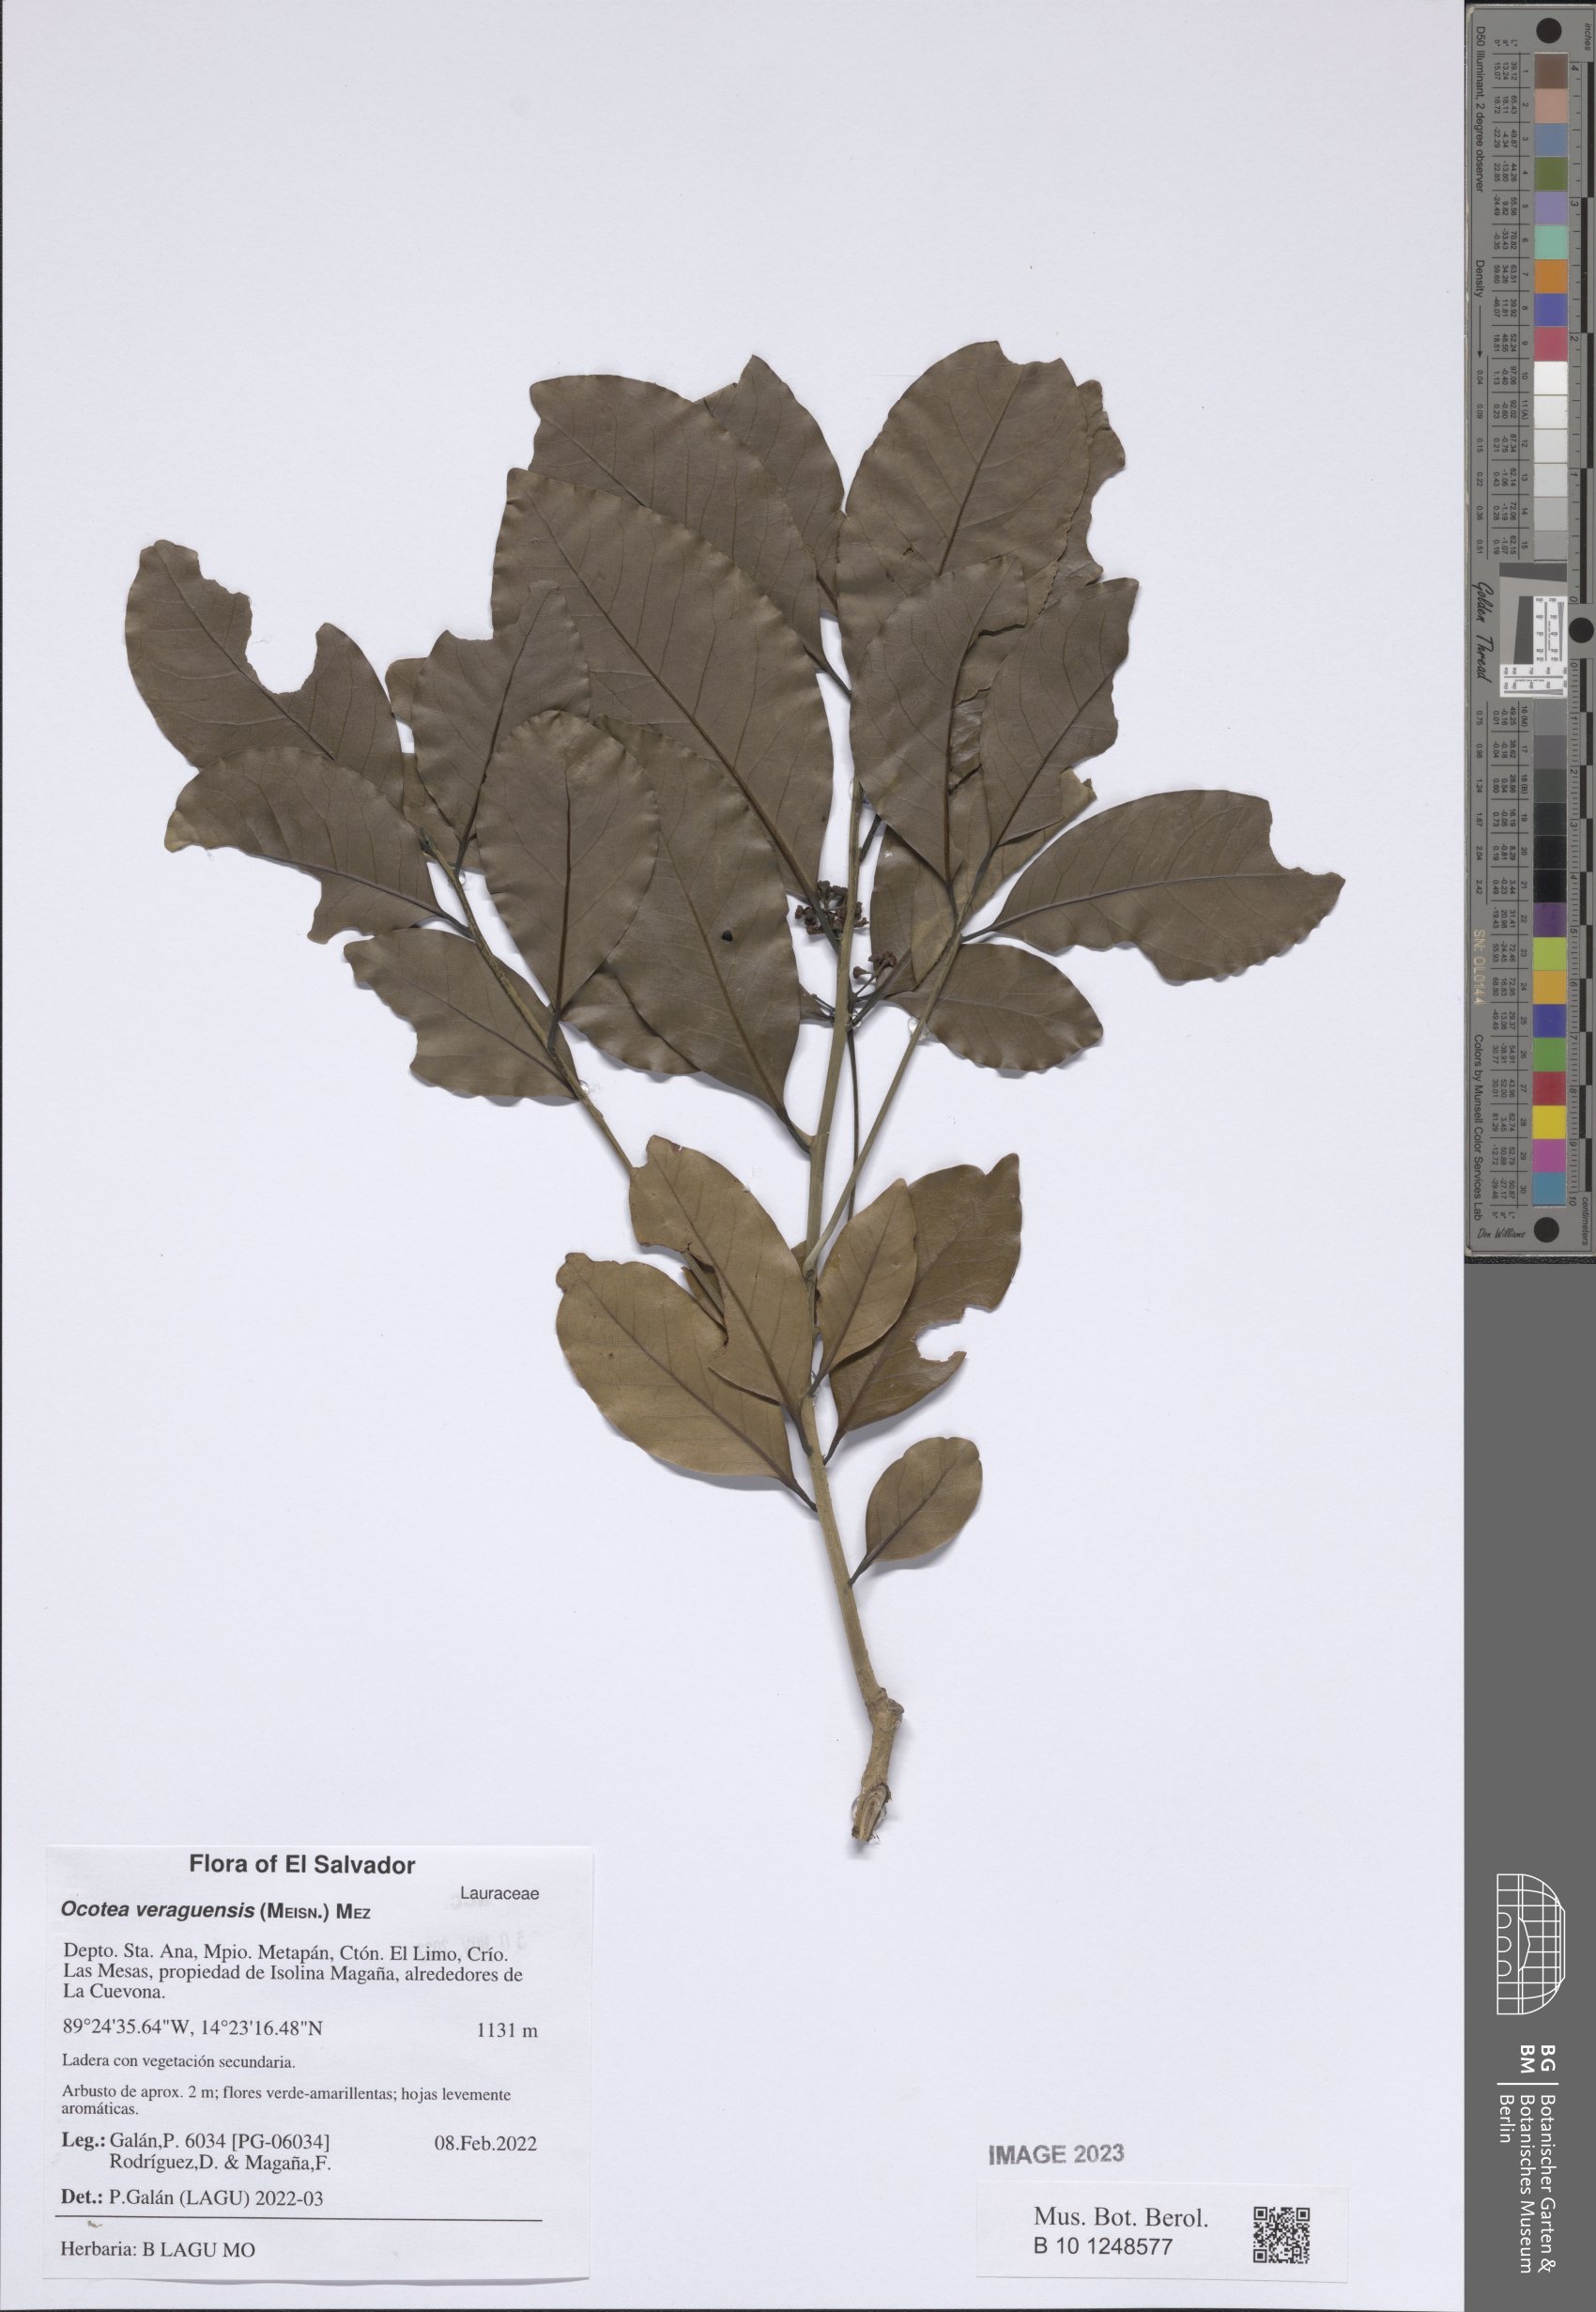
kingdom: Plantae
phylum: Tracheophyta
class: Magnoliopsida
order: Laurales
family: Lauraceae
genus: Mespilodaphne
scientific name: Mespilodaphne veraguensis
